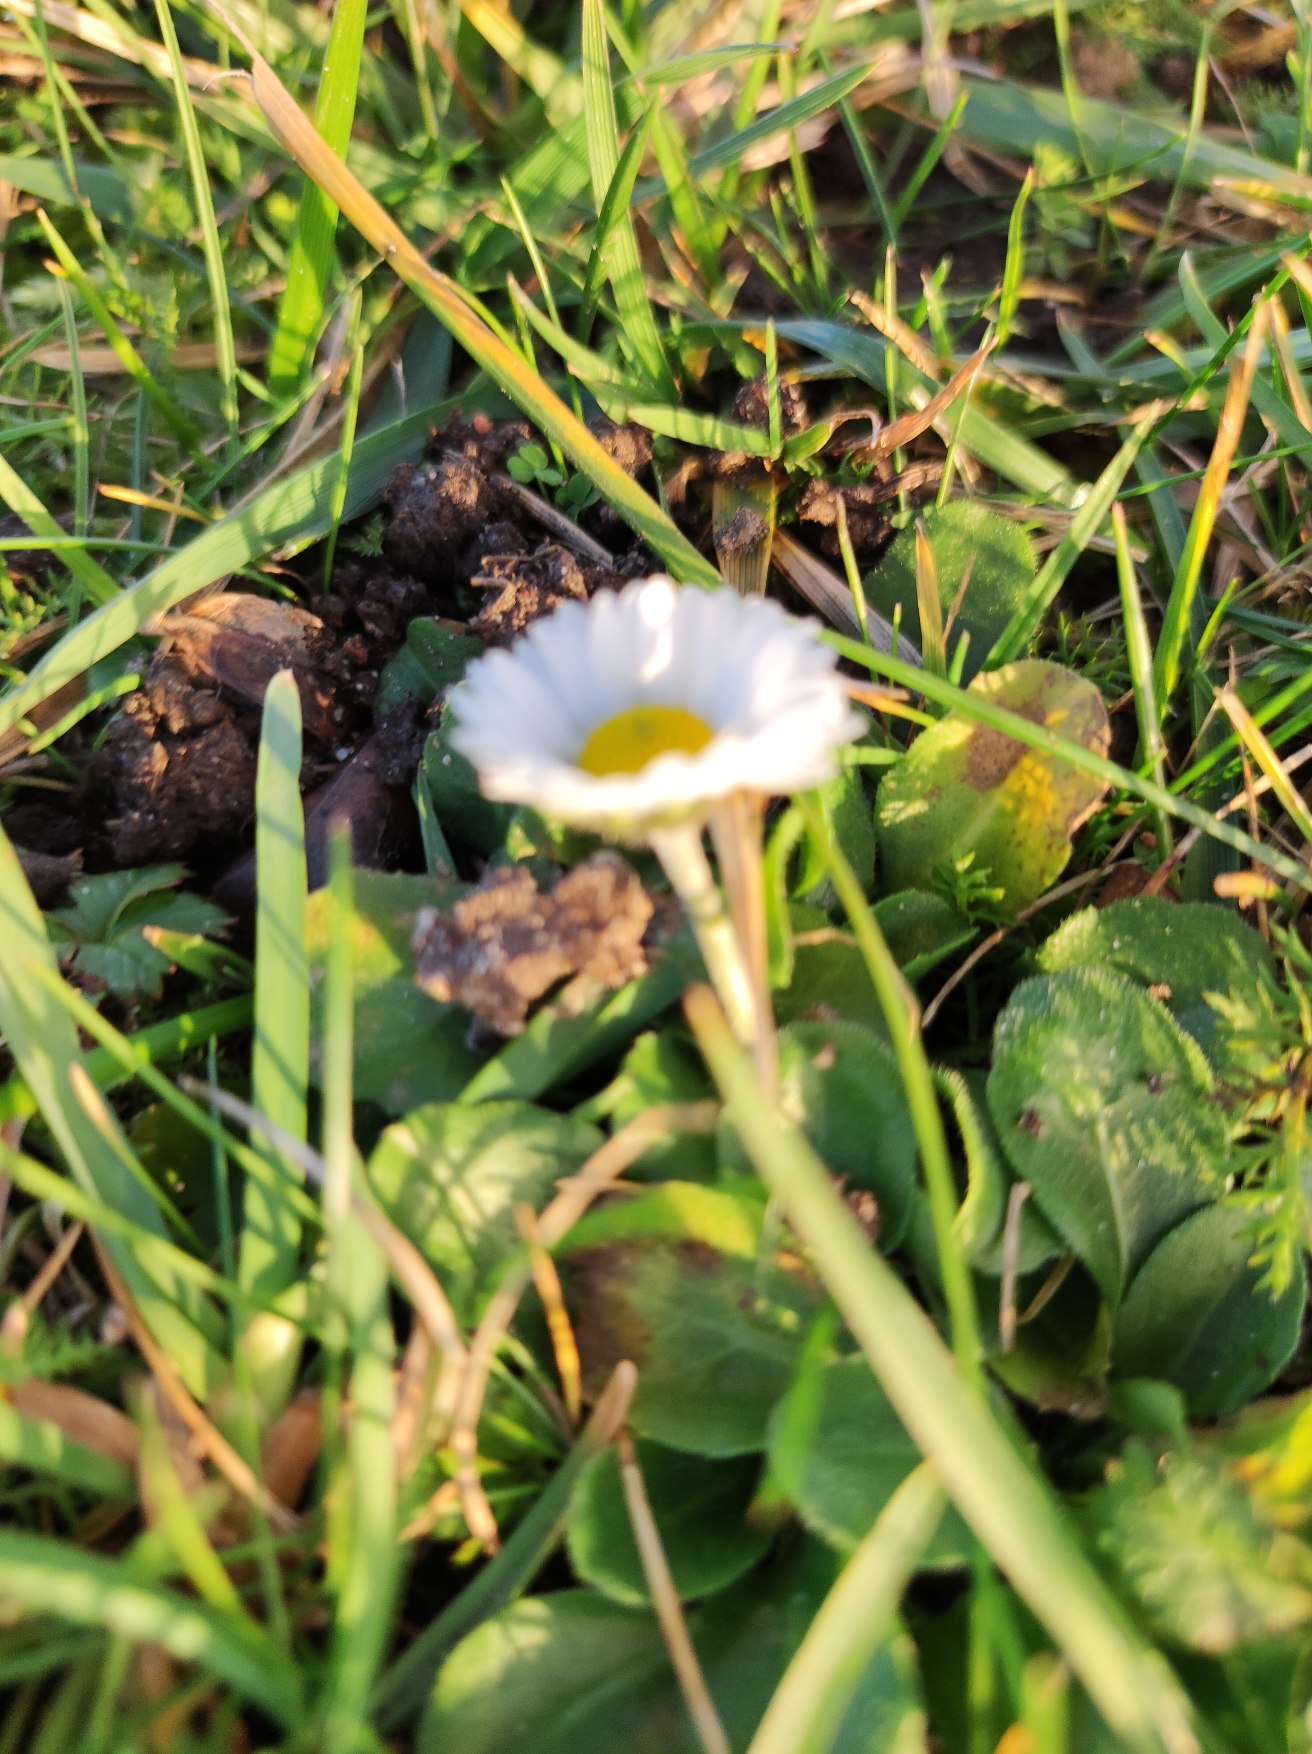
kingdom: Plantae
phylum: Tracheophyta
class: Magnoliopsida
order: Asterales
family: Asteraceae
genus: Bellis
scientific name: Bellis perennis
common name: Tusindfryd
